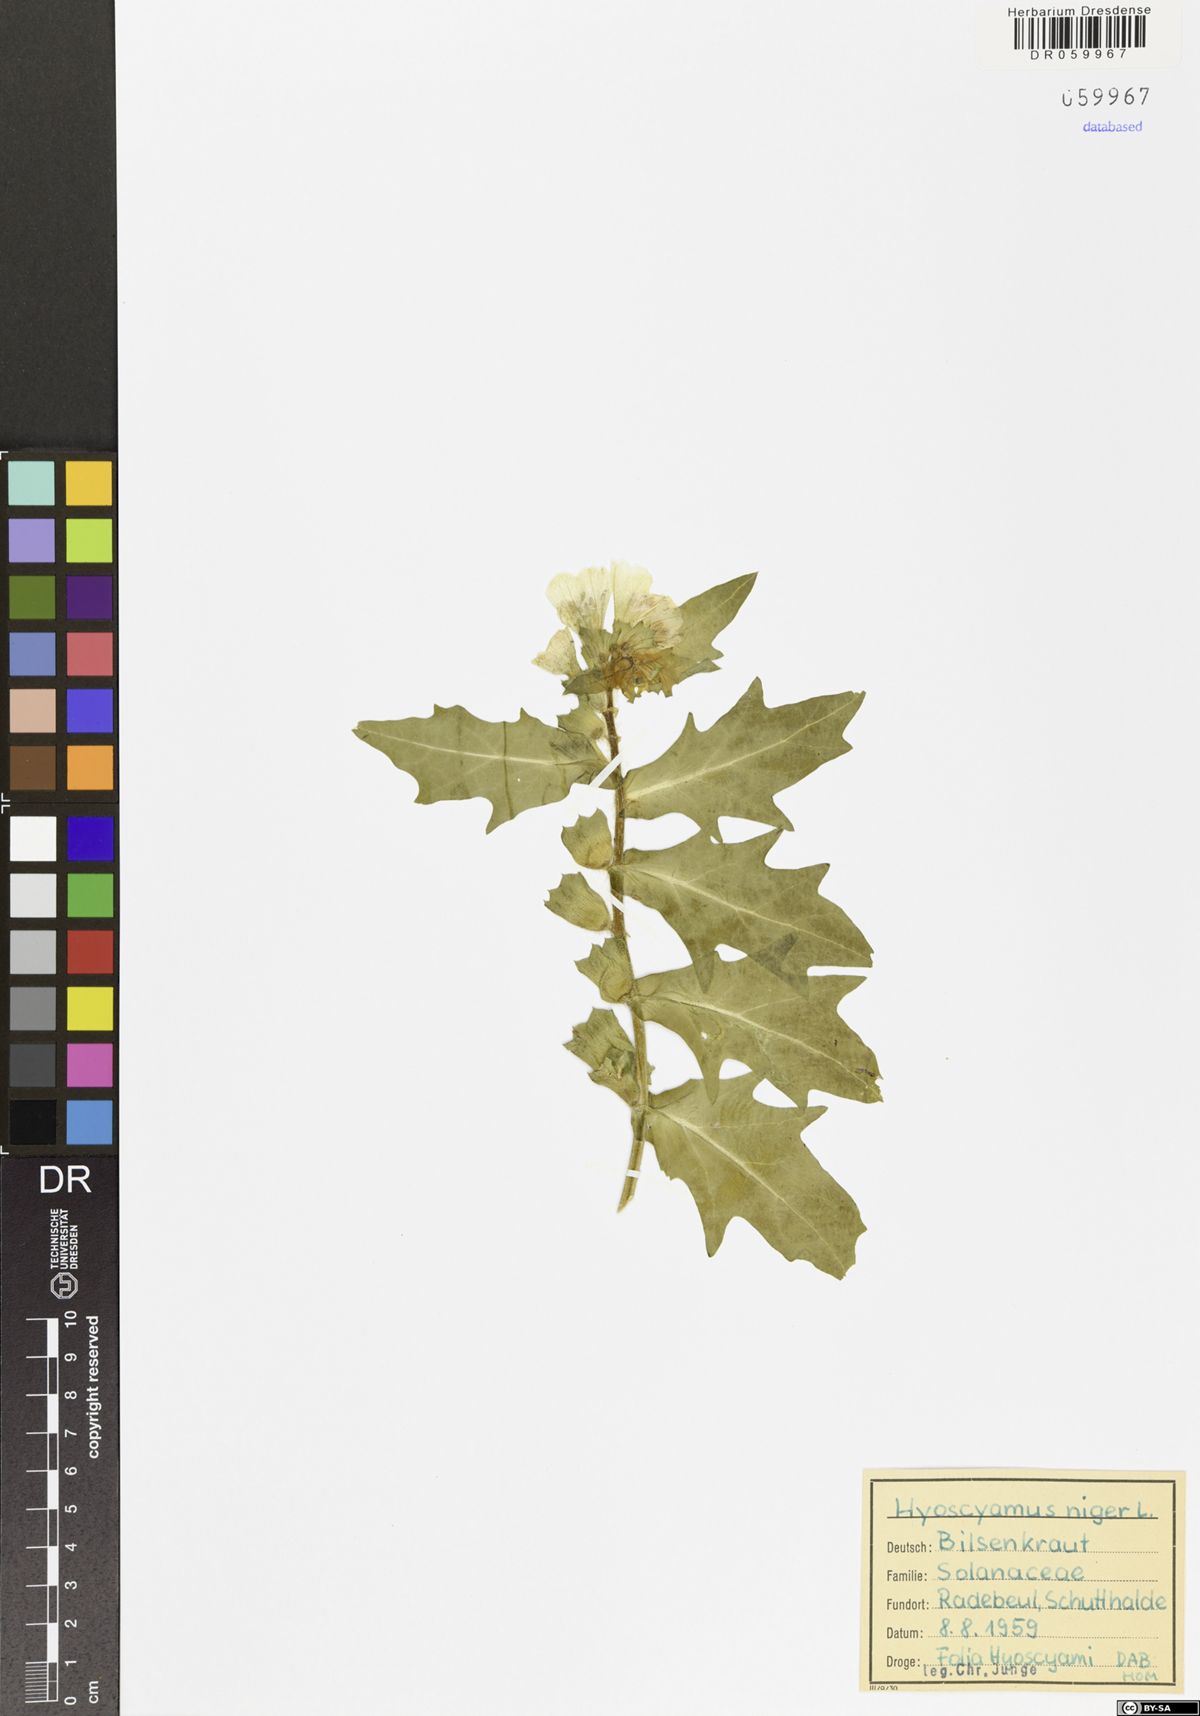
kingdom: Plantae
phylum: Tracheophyta
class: Magnoliopsida
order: Solanales
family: Solanaceae
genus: Hyoscyamus
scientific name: Hyoscyamus niger
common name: Henbane
